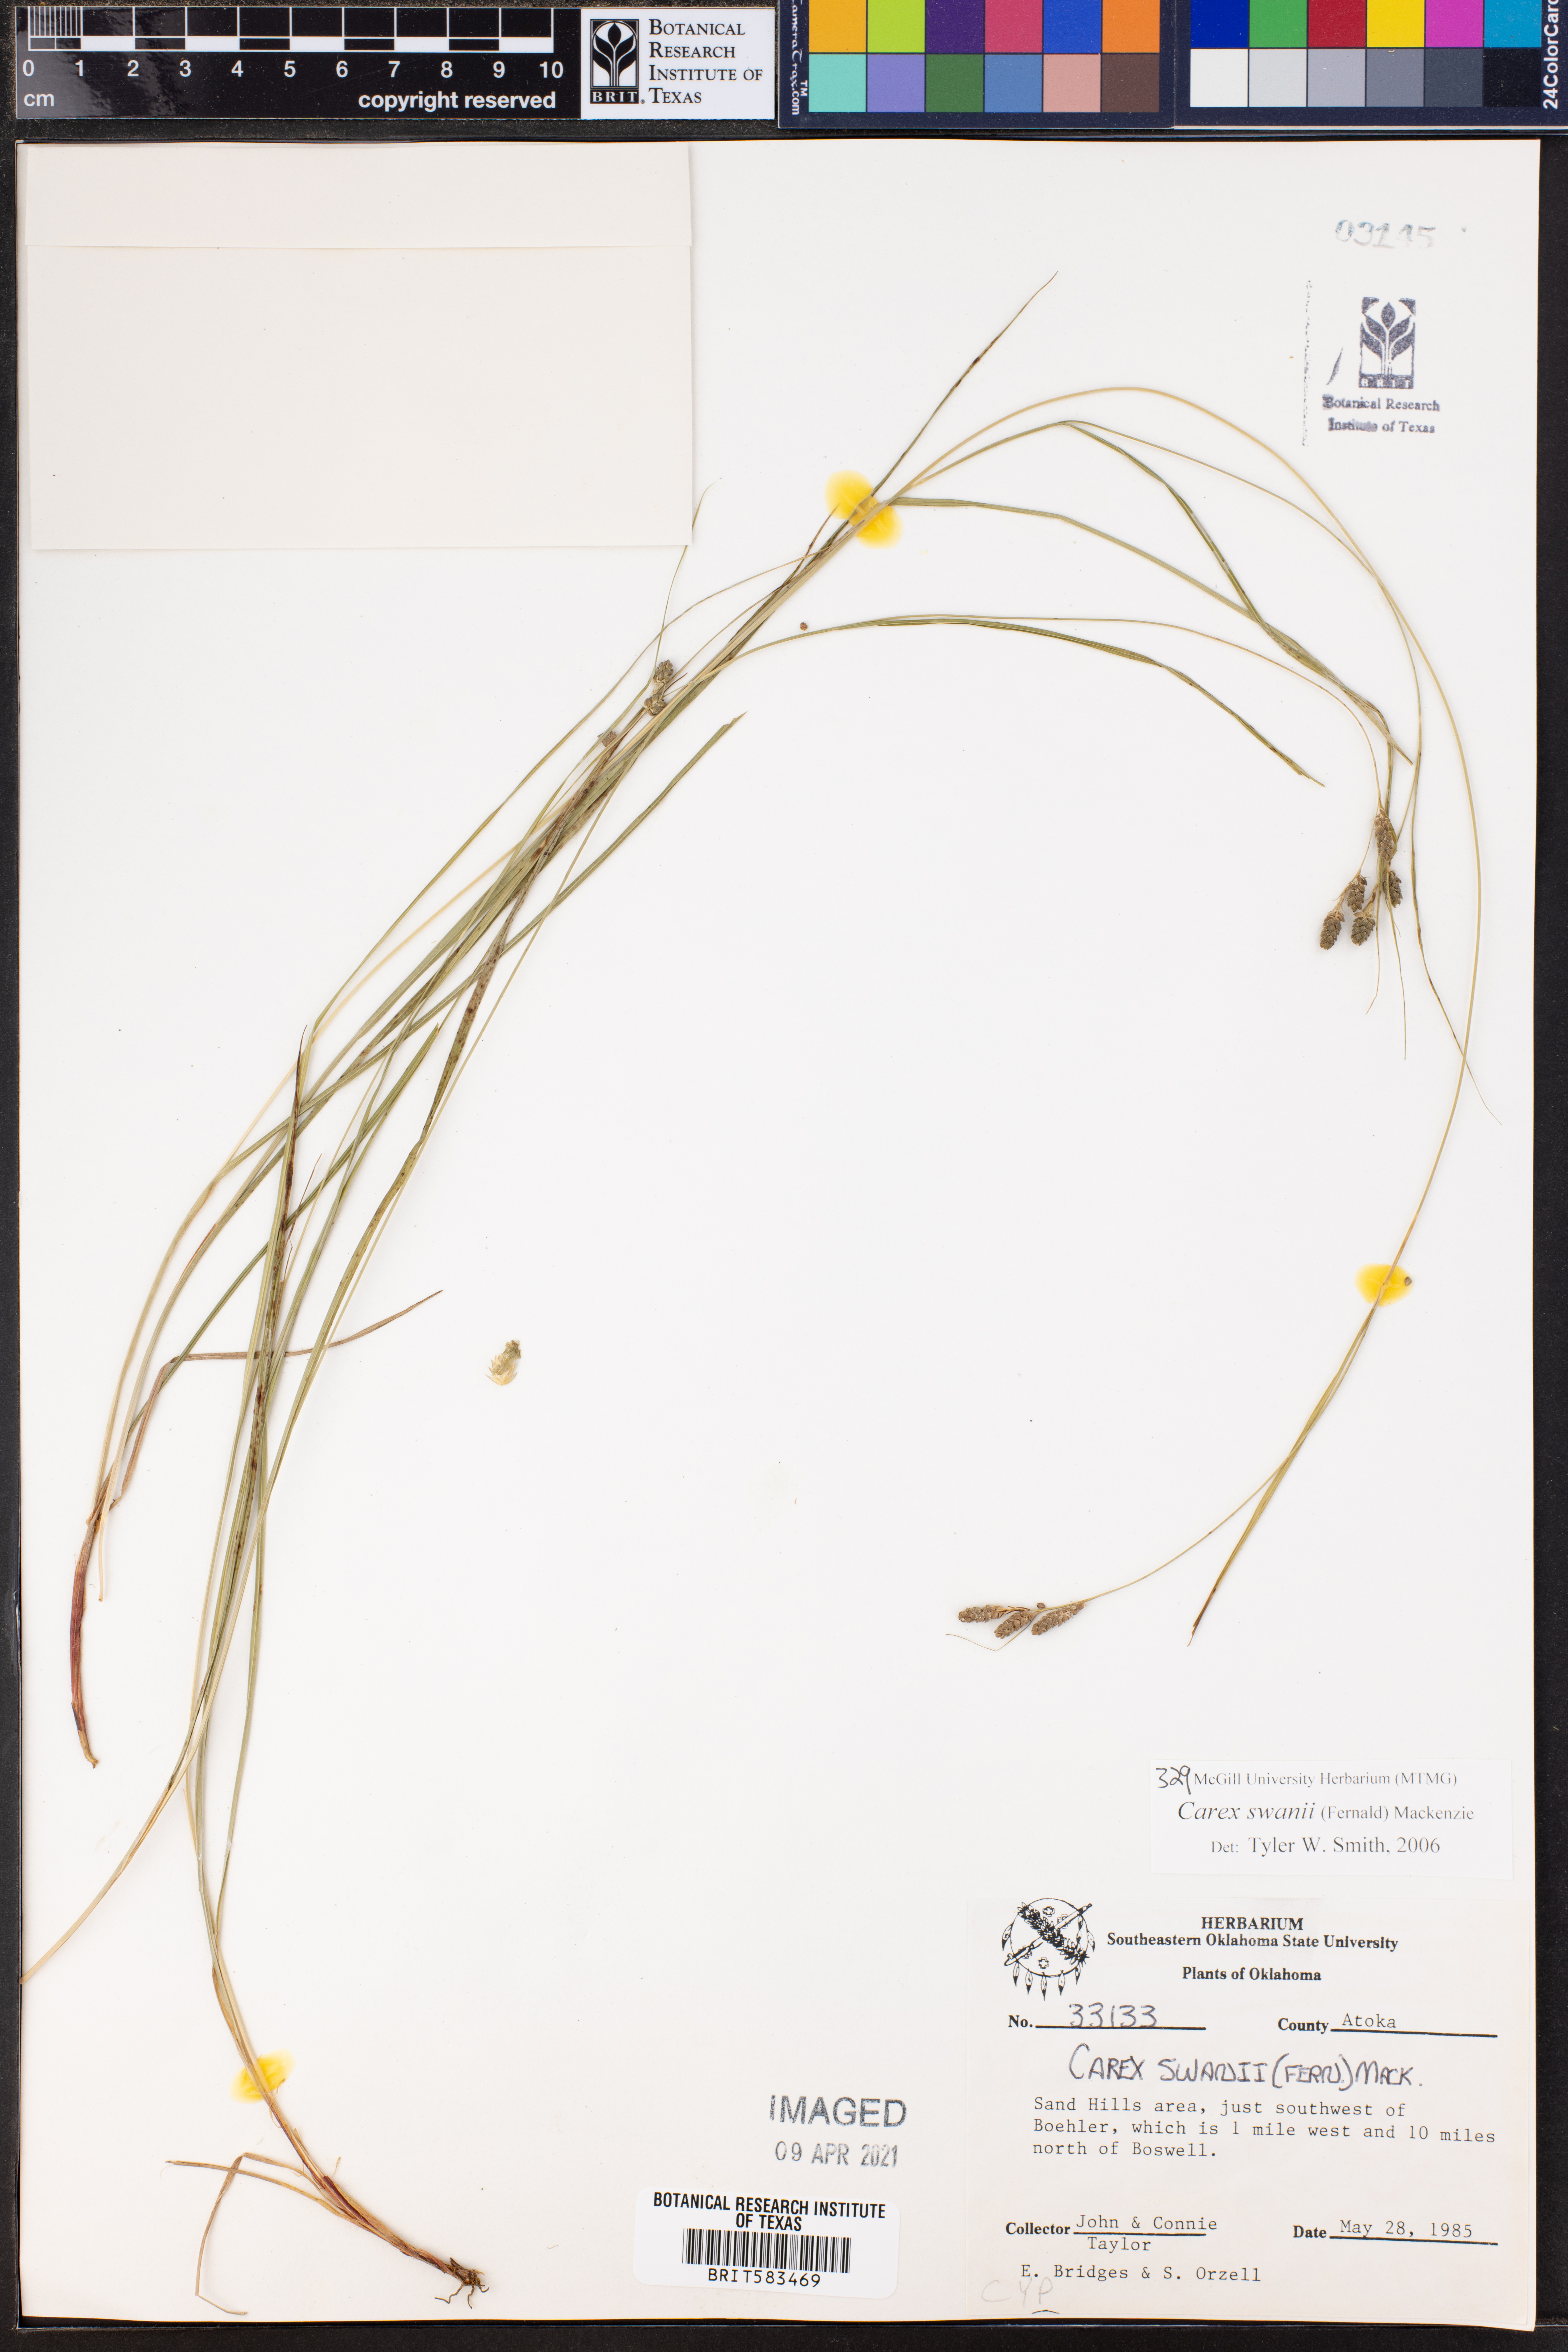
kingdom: Plantae
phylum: Tracheophyta
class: Liliopsida
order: Poales
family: Cyperaceae
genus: Carex
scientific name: Carex swanii
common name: Downy green sedge
